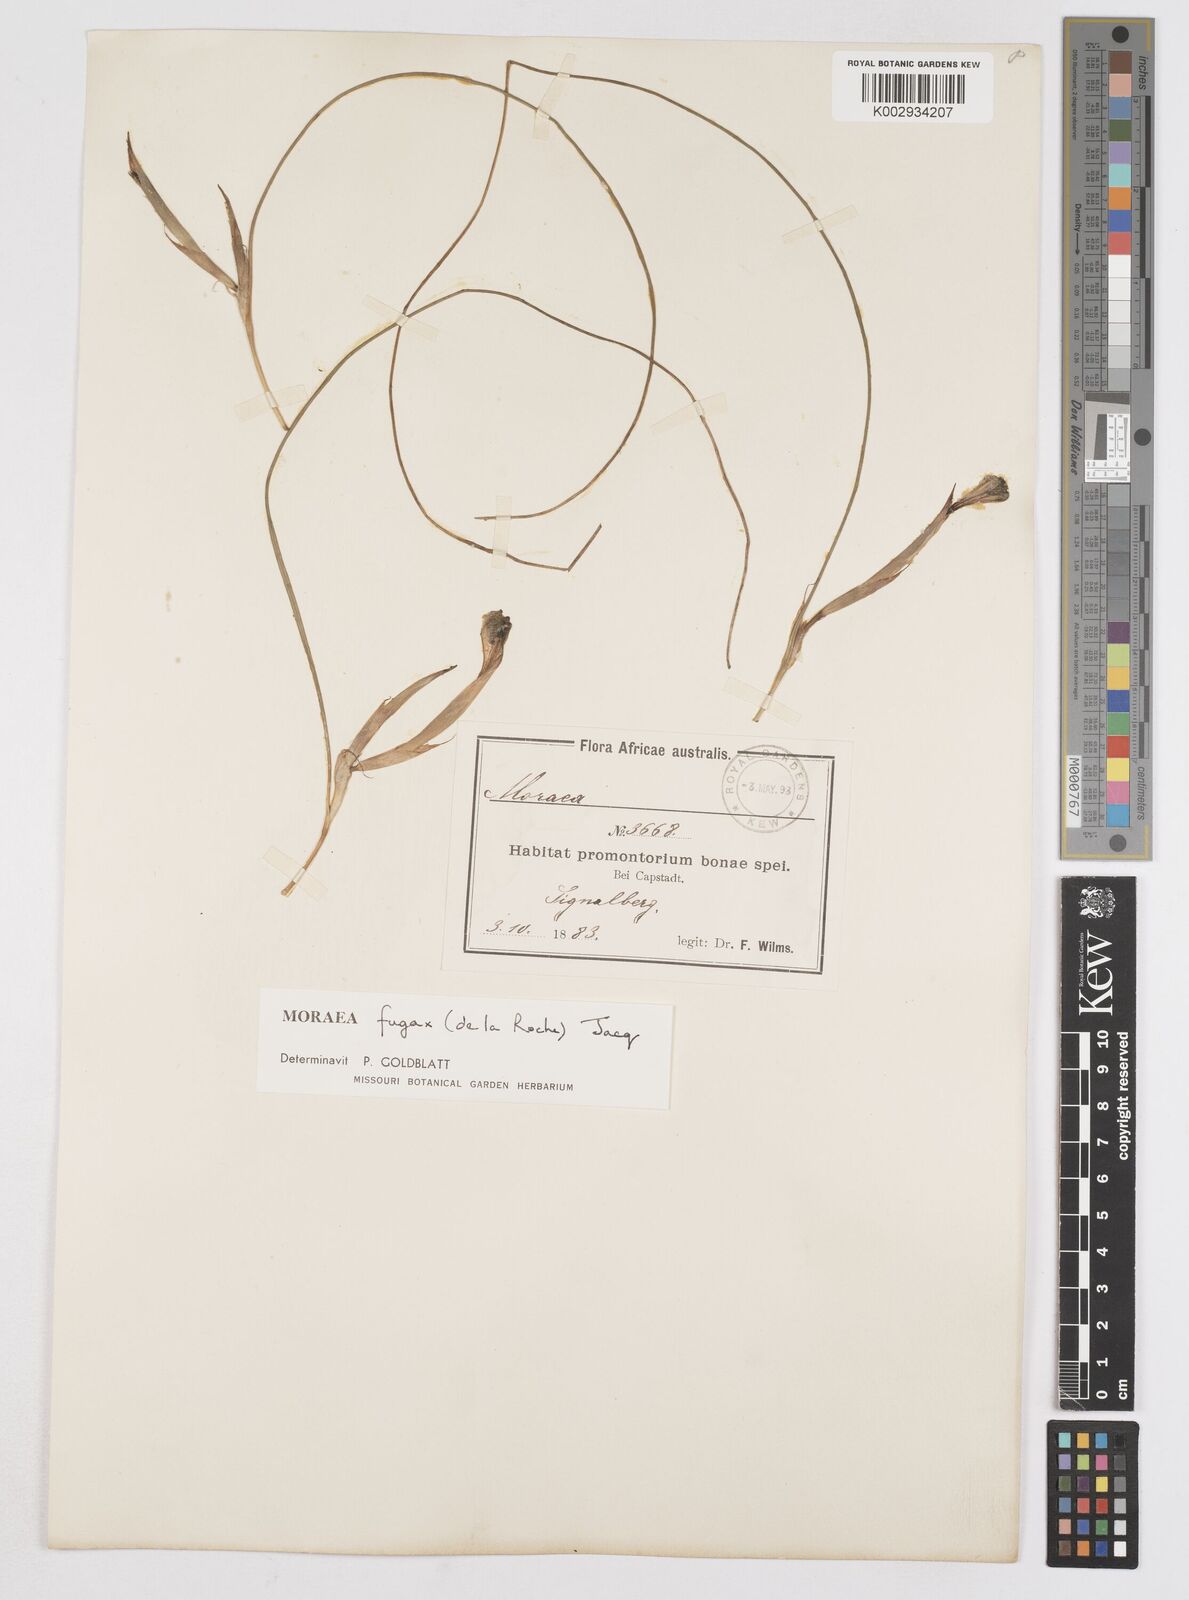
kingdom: Plantae
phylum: Tracheophyta
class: Liliopsida
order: Asparagales
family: Iridaceae
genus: Moraea
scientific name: Moraea fugax
